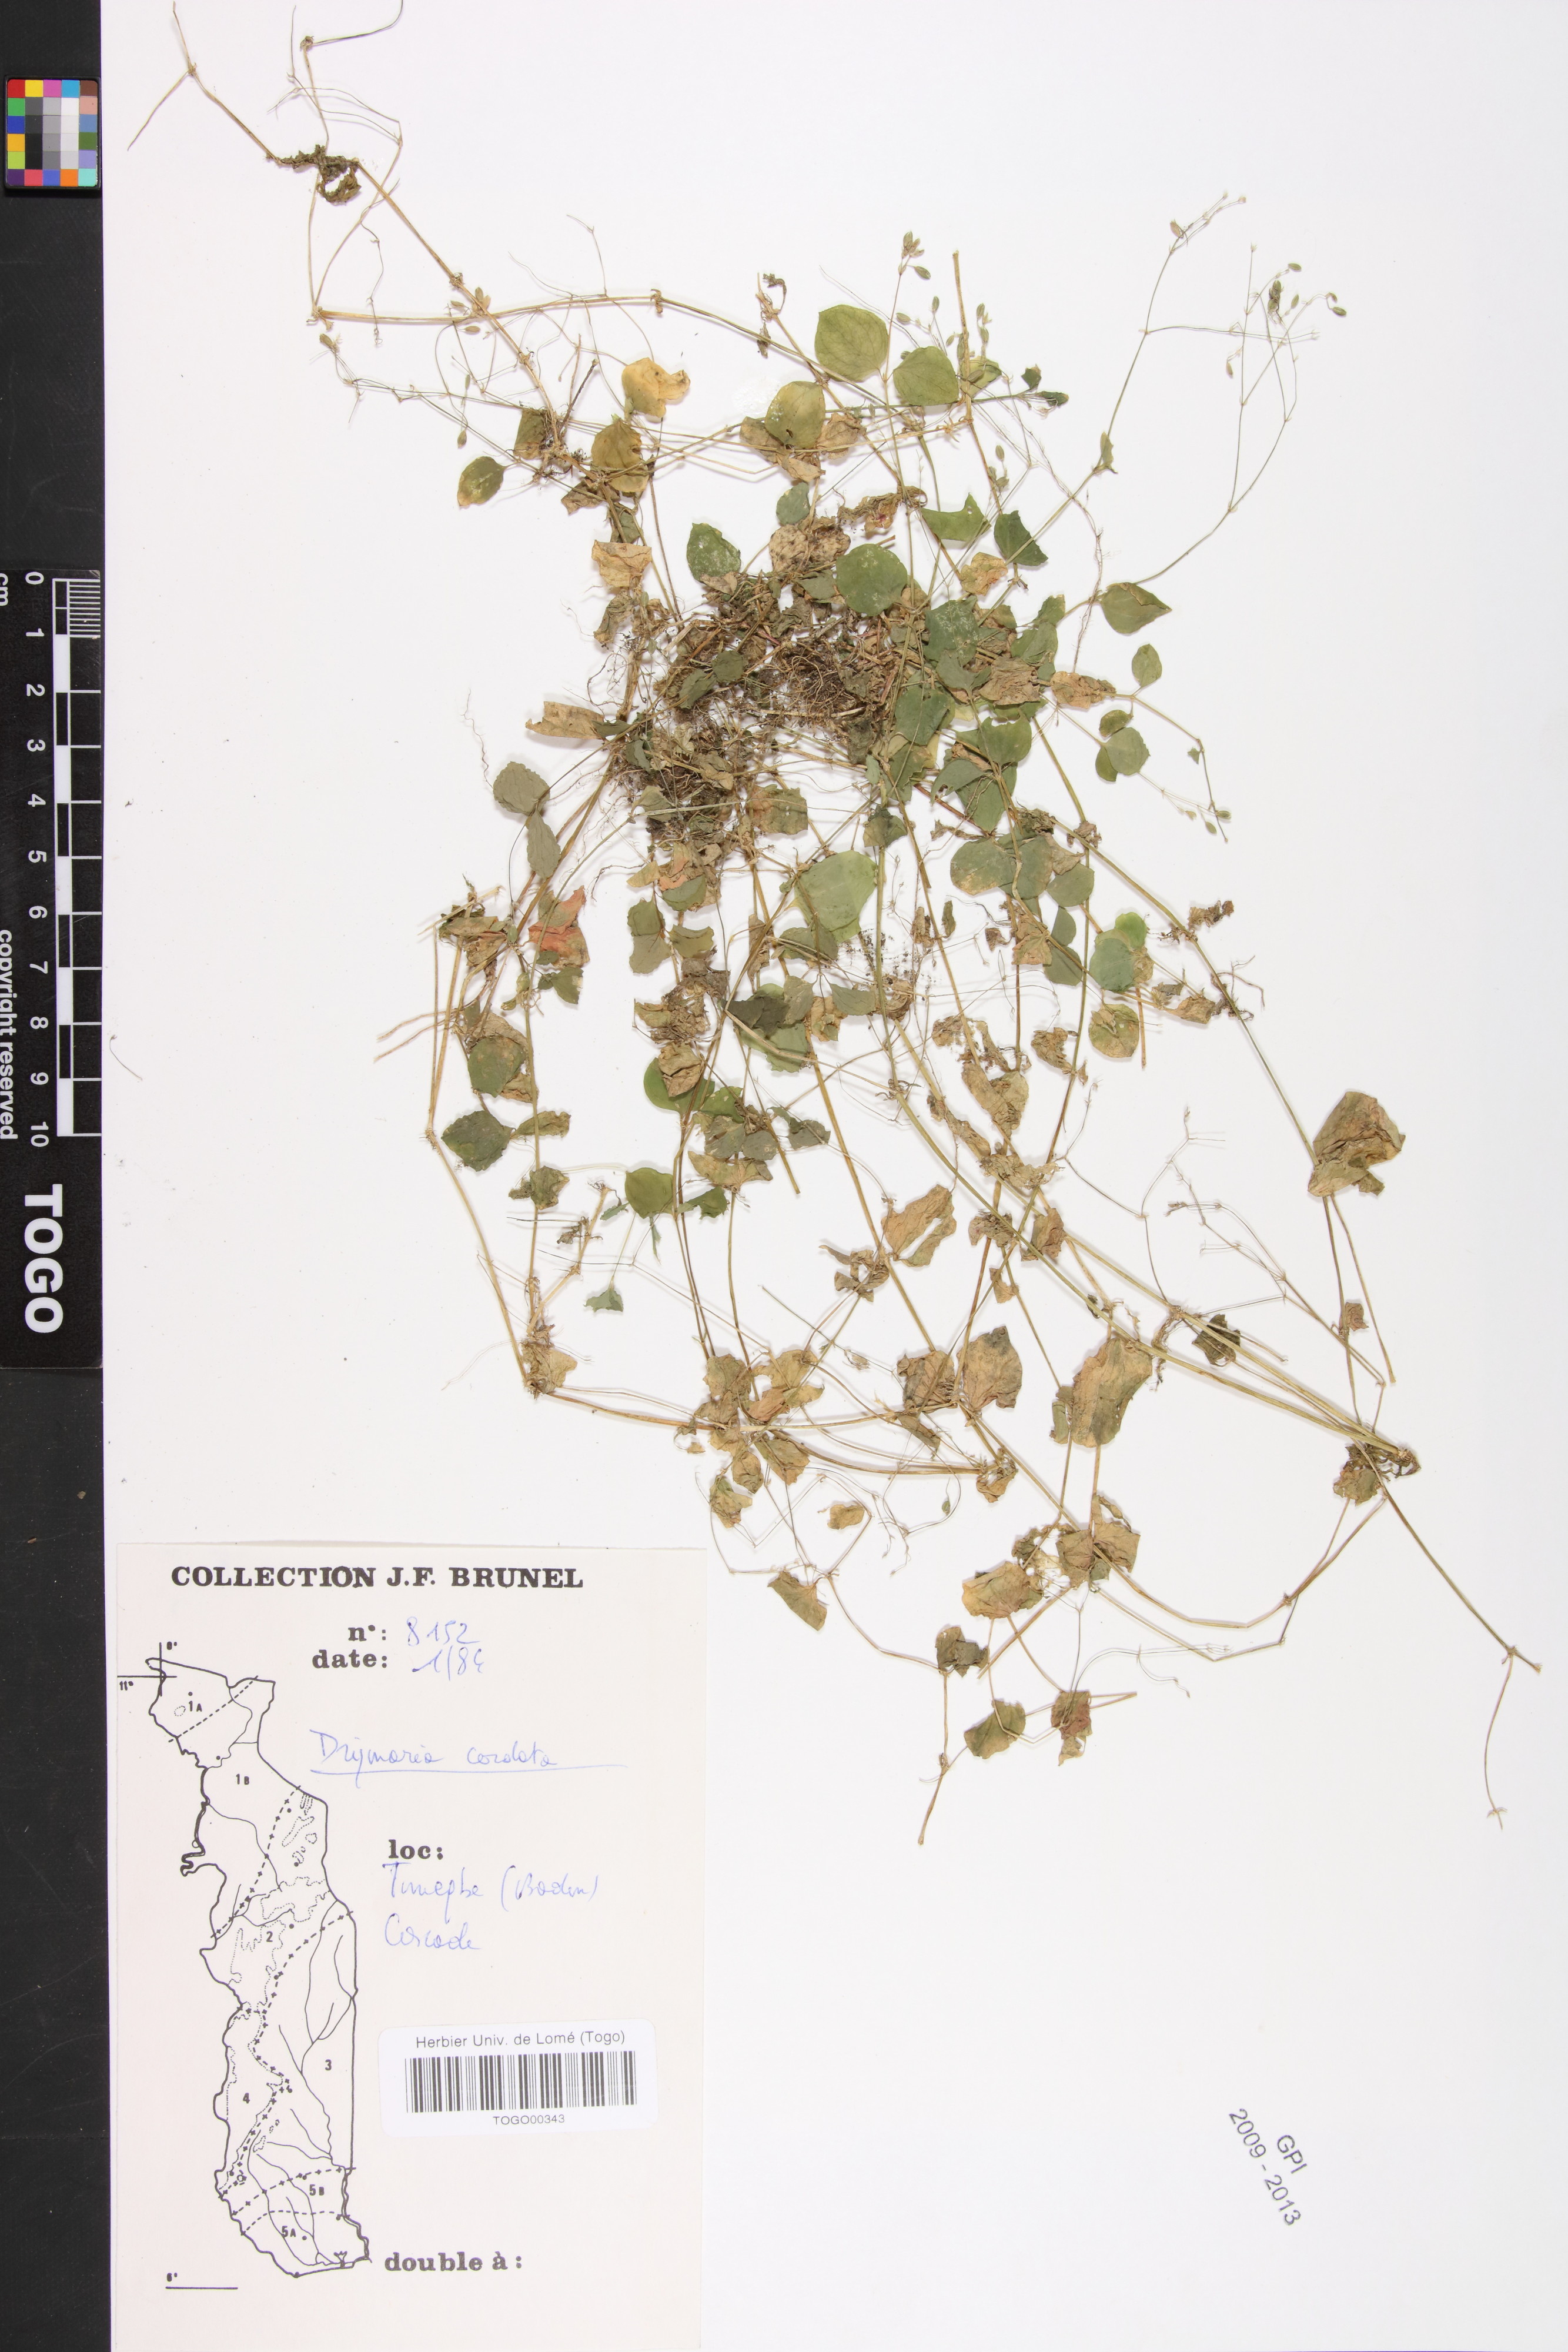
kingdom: Plantae
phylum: Tracheophyta
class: Magnoliopsida
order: Caryophyllales
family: Caryophyllaceae
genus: Drymaria
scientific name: Drymaria cordata
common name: Whitesnow
